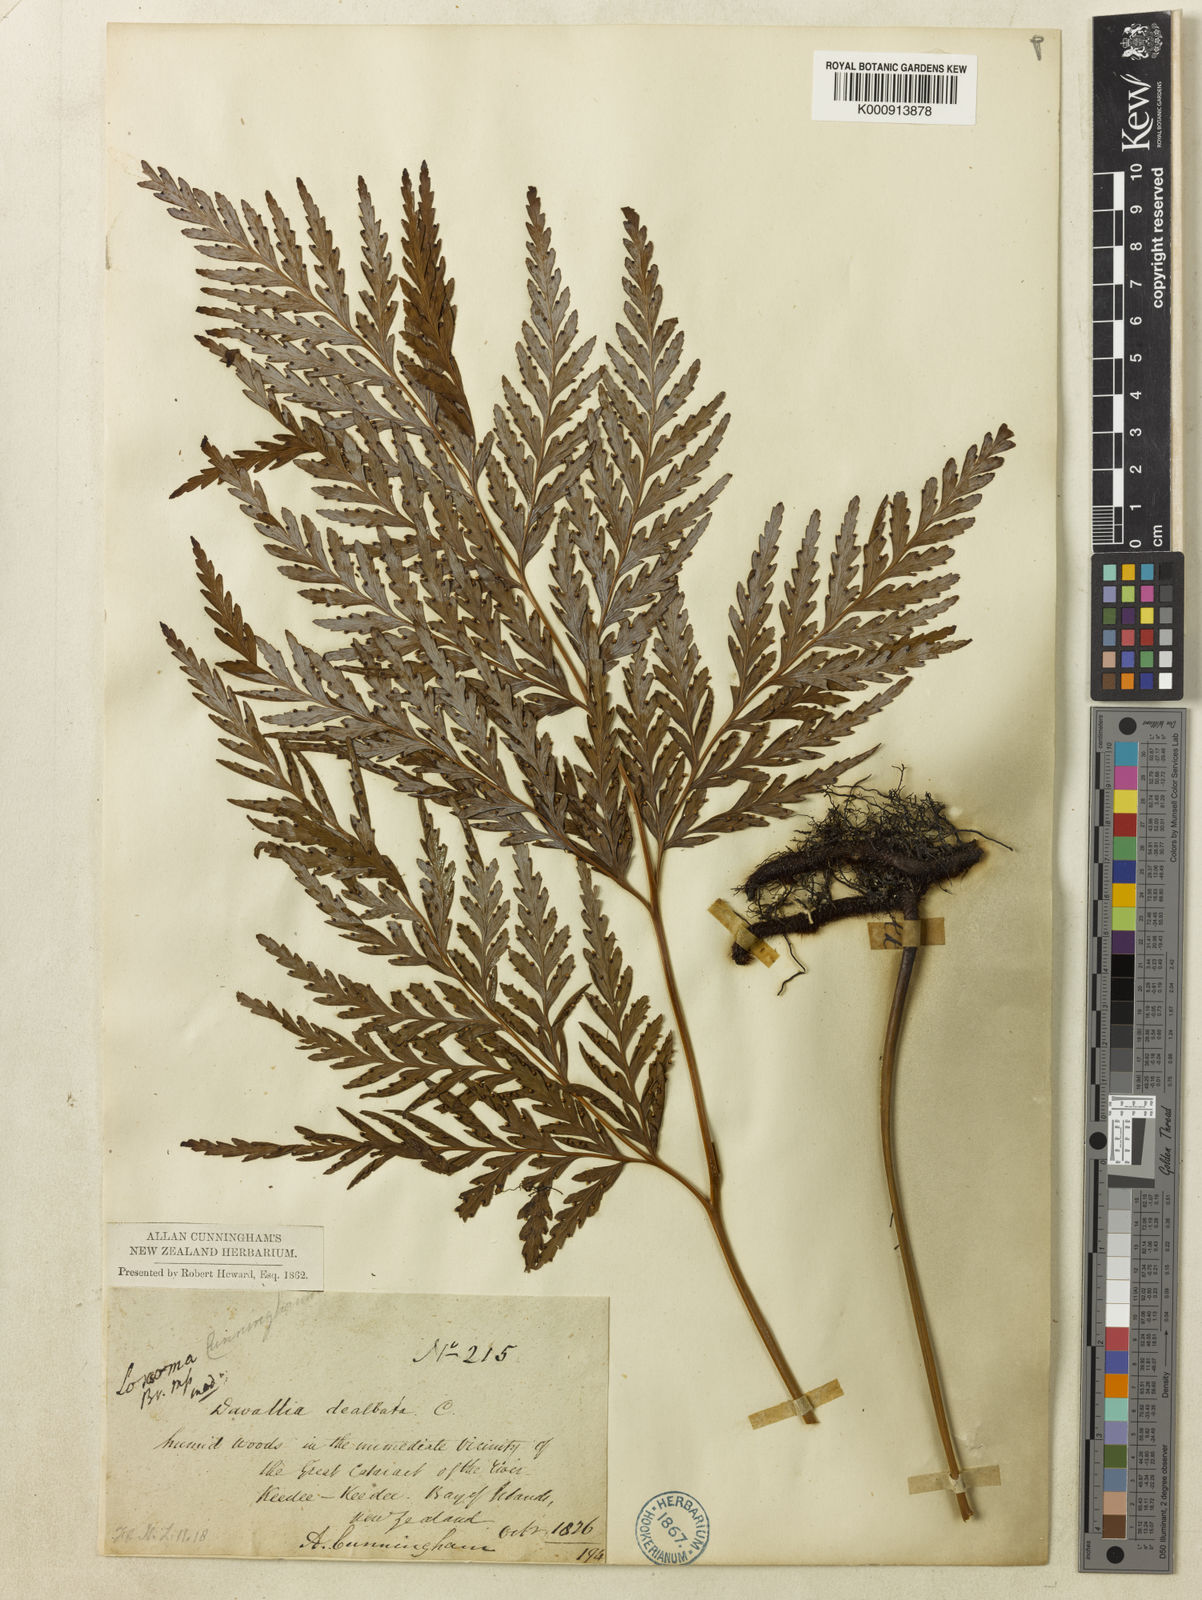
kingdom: Plantae
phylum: Tracheophyta
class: Polypodiopsida
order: Cyatheales
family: Cyatheaceae
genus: Loxsoma
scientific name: Loxsoma cunninghamii
